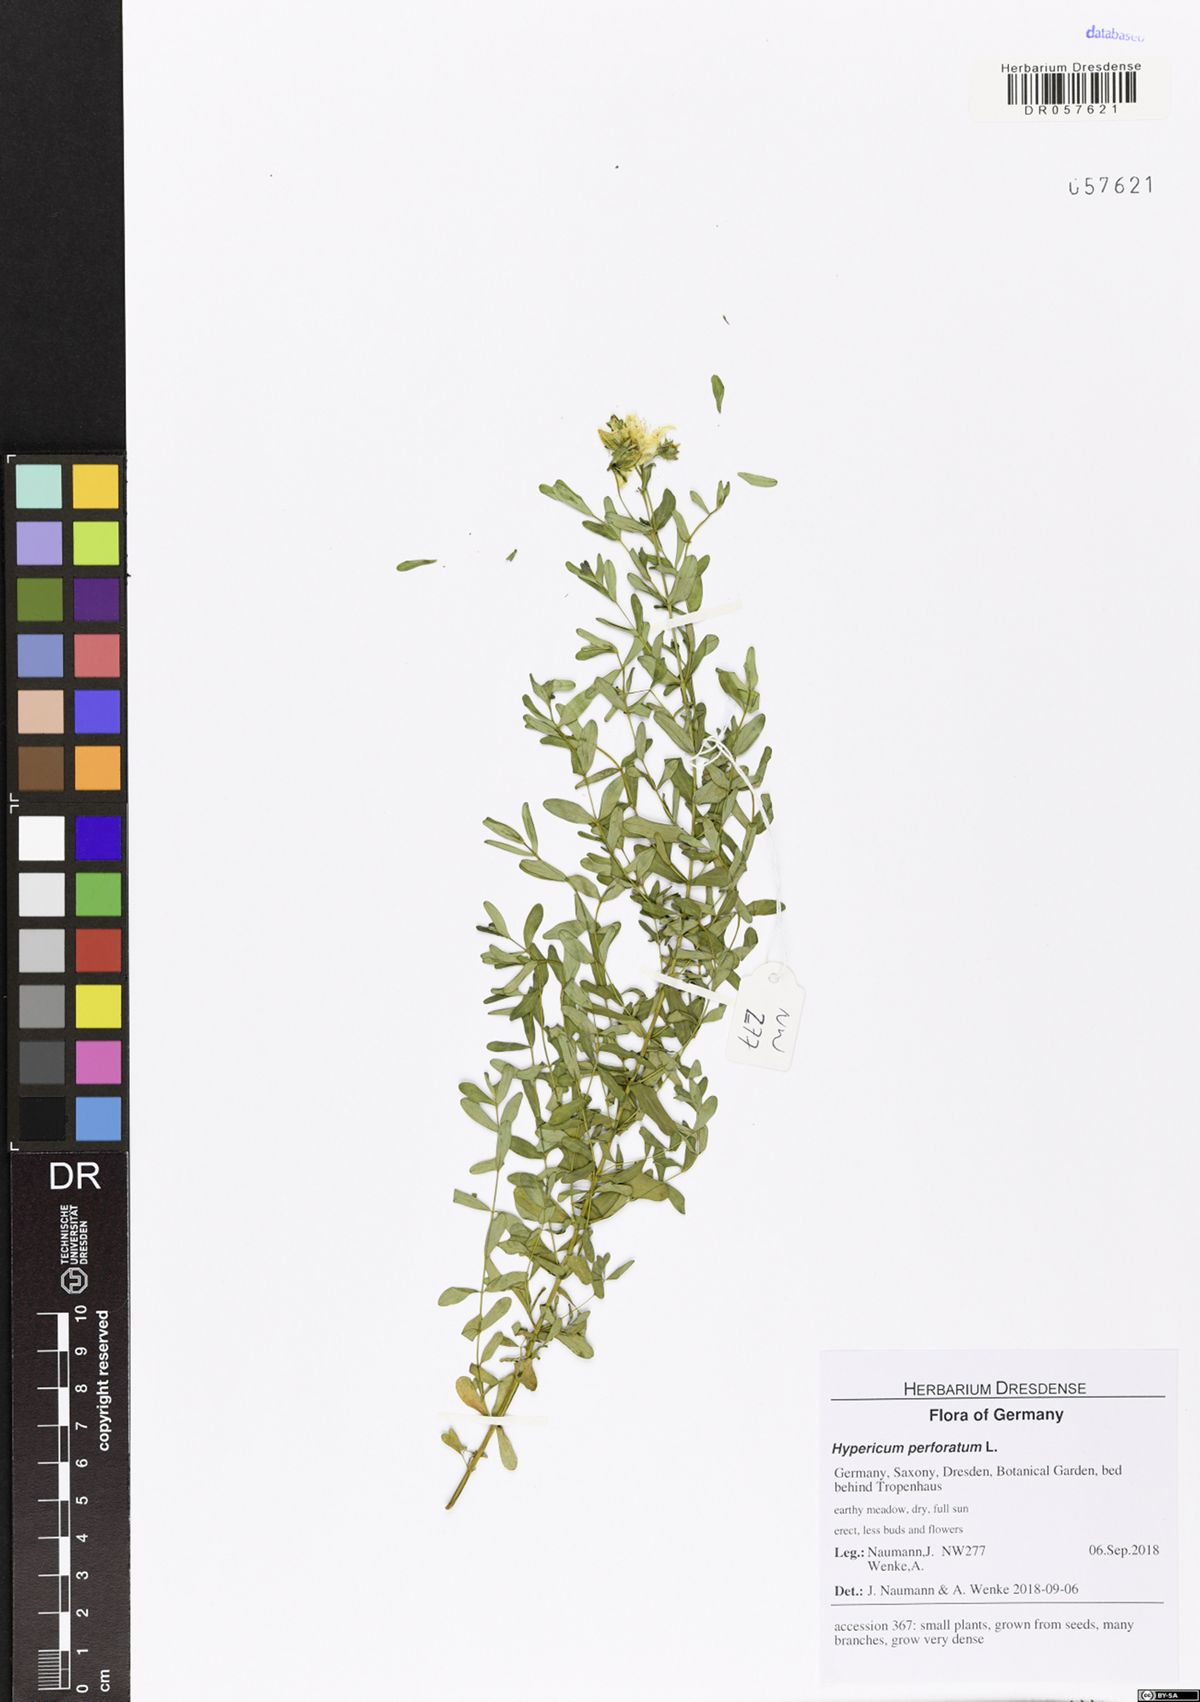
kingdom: Plantae
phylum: Tracheophyta
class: Magnoliopsida
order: Malpighiales
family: Hypericaceae
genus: Hypericum
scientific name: Hypericum perforatum
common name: Common st. johnswort
